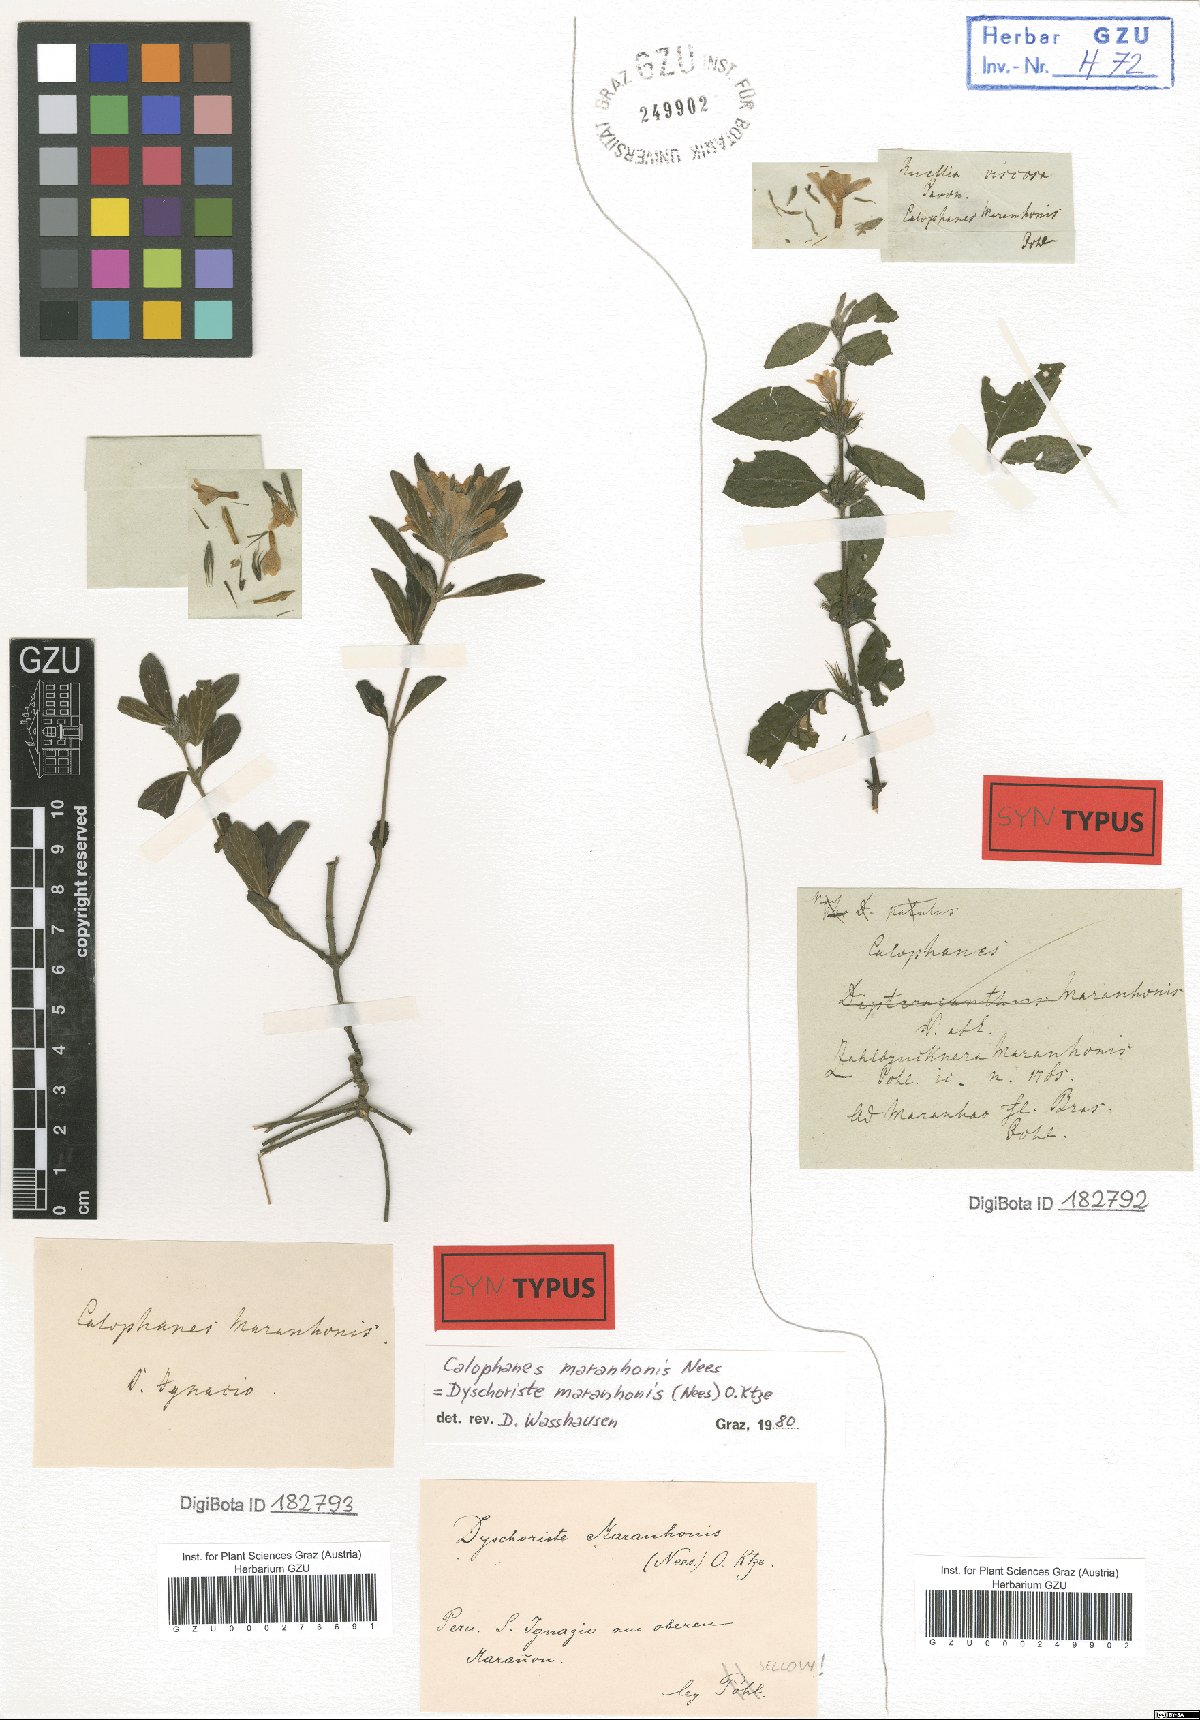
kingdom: Plantae
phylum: Tracheophyta
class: Magnoliopsida
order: Lamiales
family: Acanthaceae
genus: Dyschoriste
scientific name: Dyschoriste maranhonis
